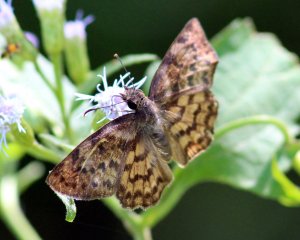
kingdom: Animalia
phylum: Arthropoda
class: Insecta
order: Lepidoptera
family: Hesperiidae
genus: Timochares
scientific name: Timochares ruptifasciata
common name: Brown-banded Skipper
